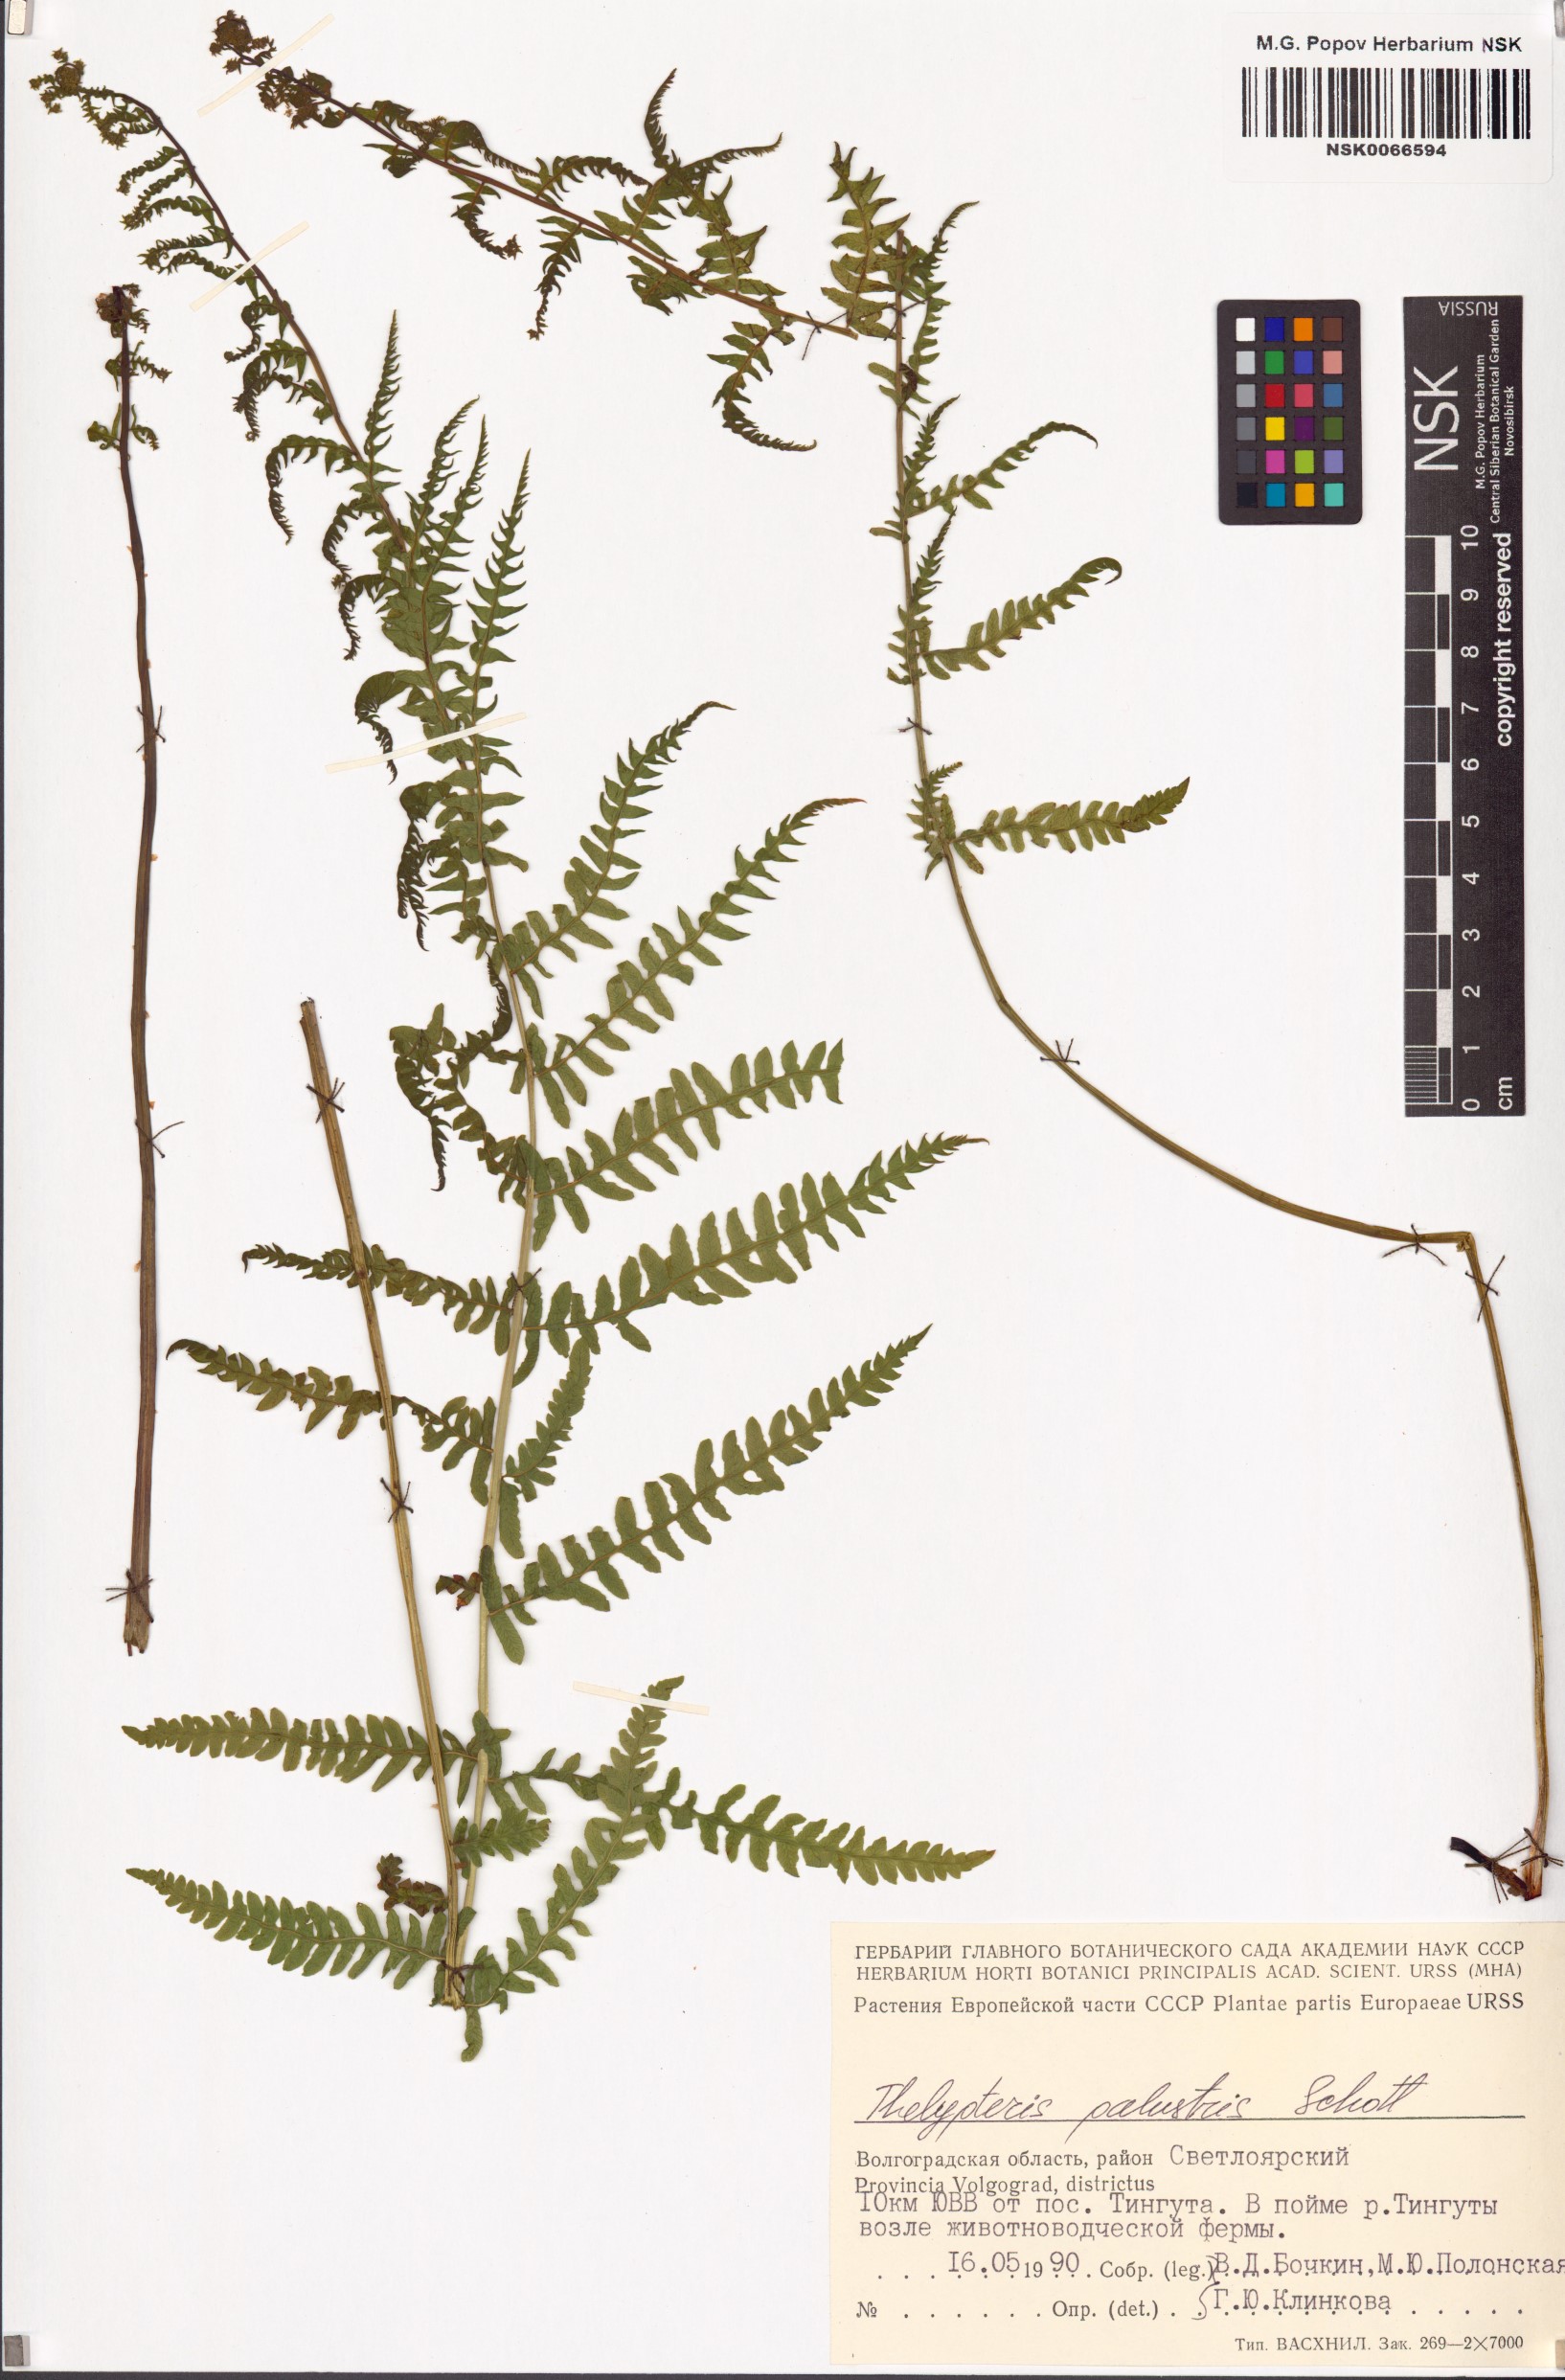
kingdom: Plantae
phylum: Tracheophyta
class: Polypodiopsida
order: Polypodiales
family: Thelypteridaceae
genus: Thelypteris
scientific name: Thelypteris palustris
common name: Marsh fern
